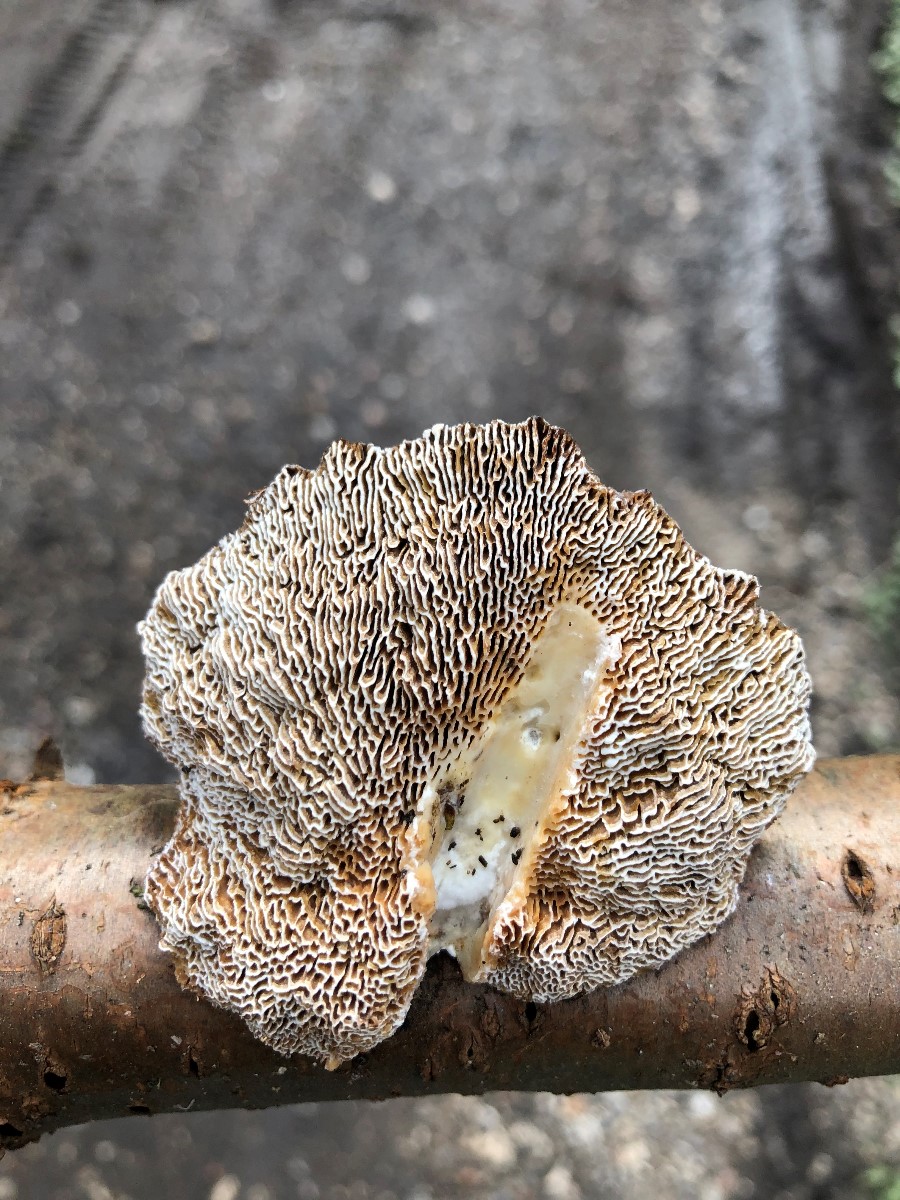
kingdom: Fungi
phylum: Basidiomycota
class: Agaricomycetes
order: Polyporales
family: Polyporaceae
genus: Daedaleopsis
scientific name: Daedaleopsis confragosa
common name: rødmende læderporesvamp
